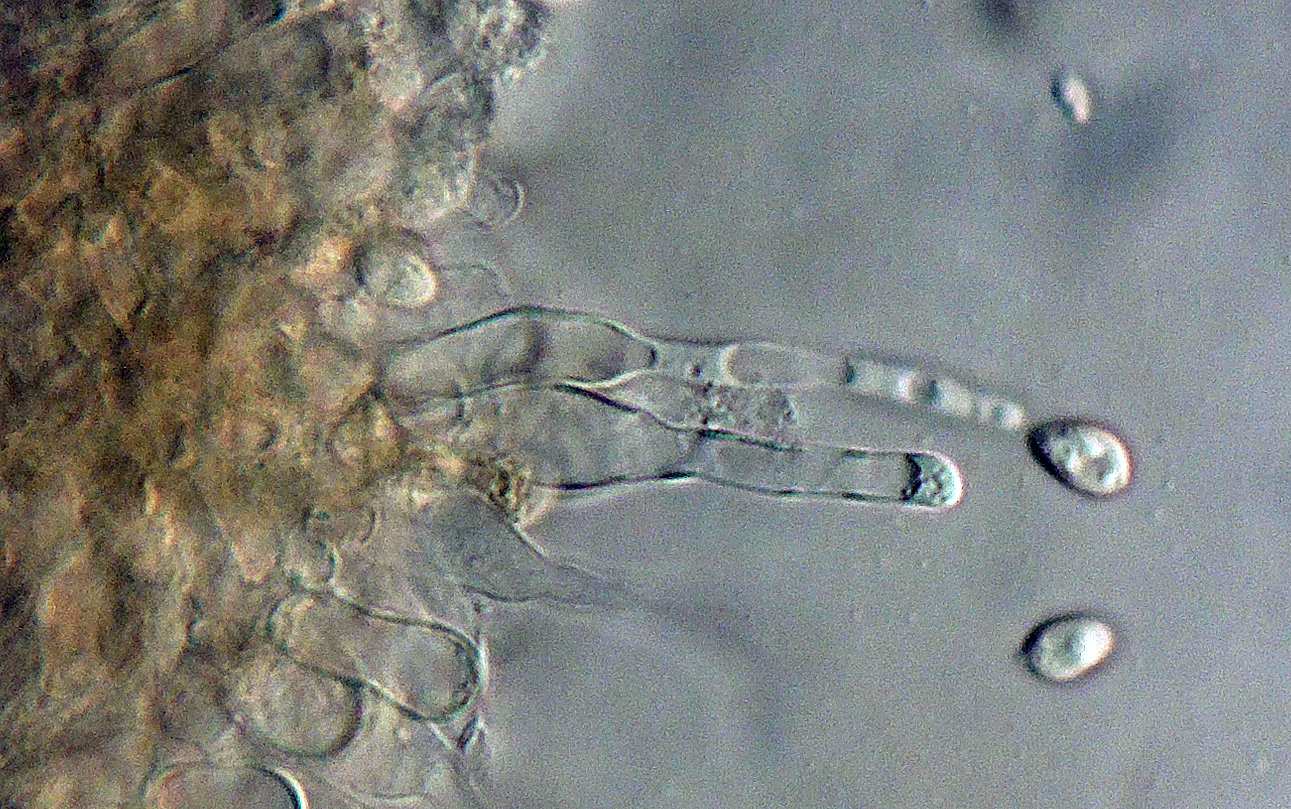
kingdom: Fungi
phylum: Basidiomycota
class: Agaricomycetes
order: Agaricales
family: Tubariaceae
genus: Flammulaster
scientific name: Flammulaster carpophilus
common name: bøge-grynskælhat
